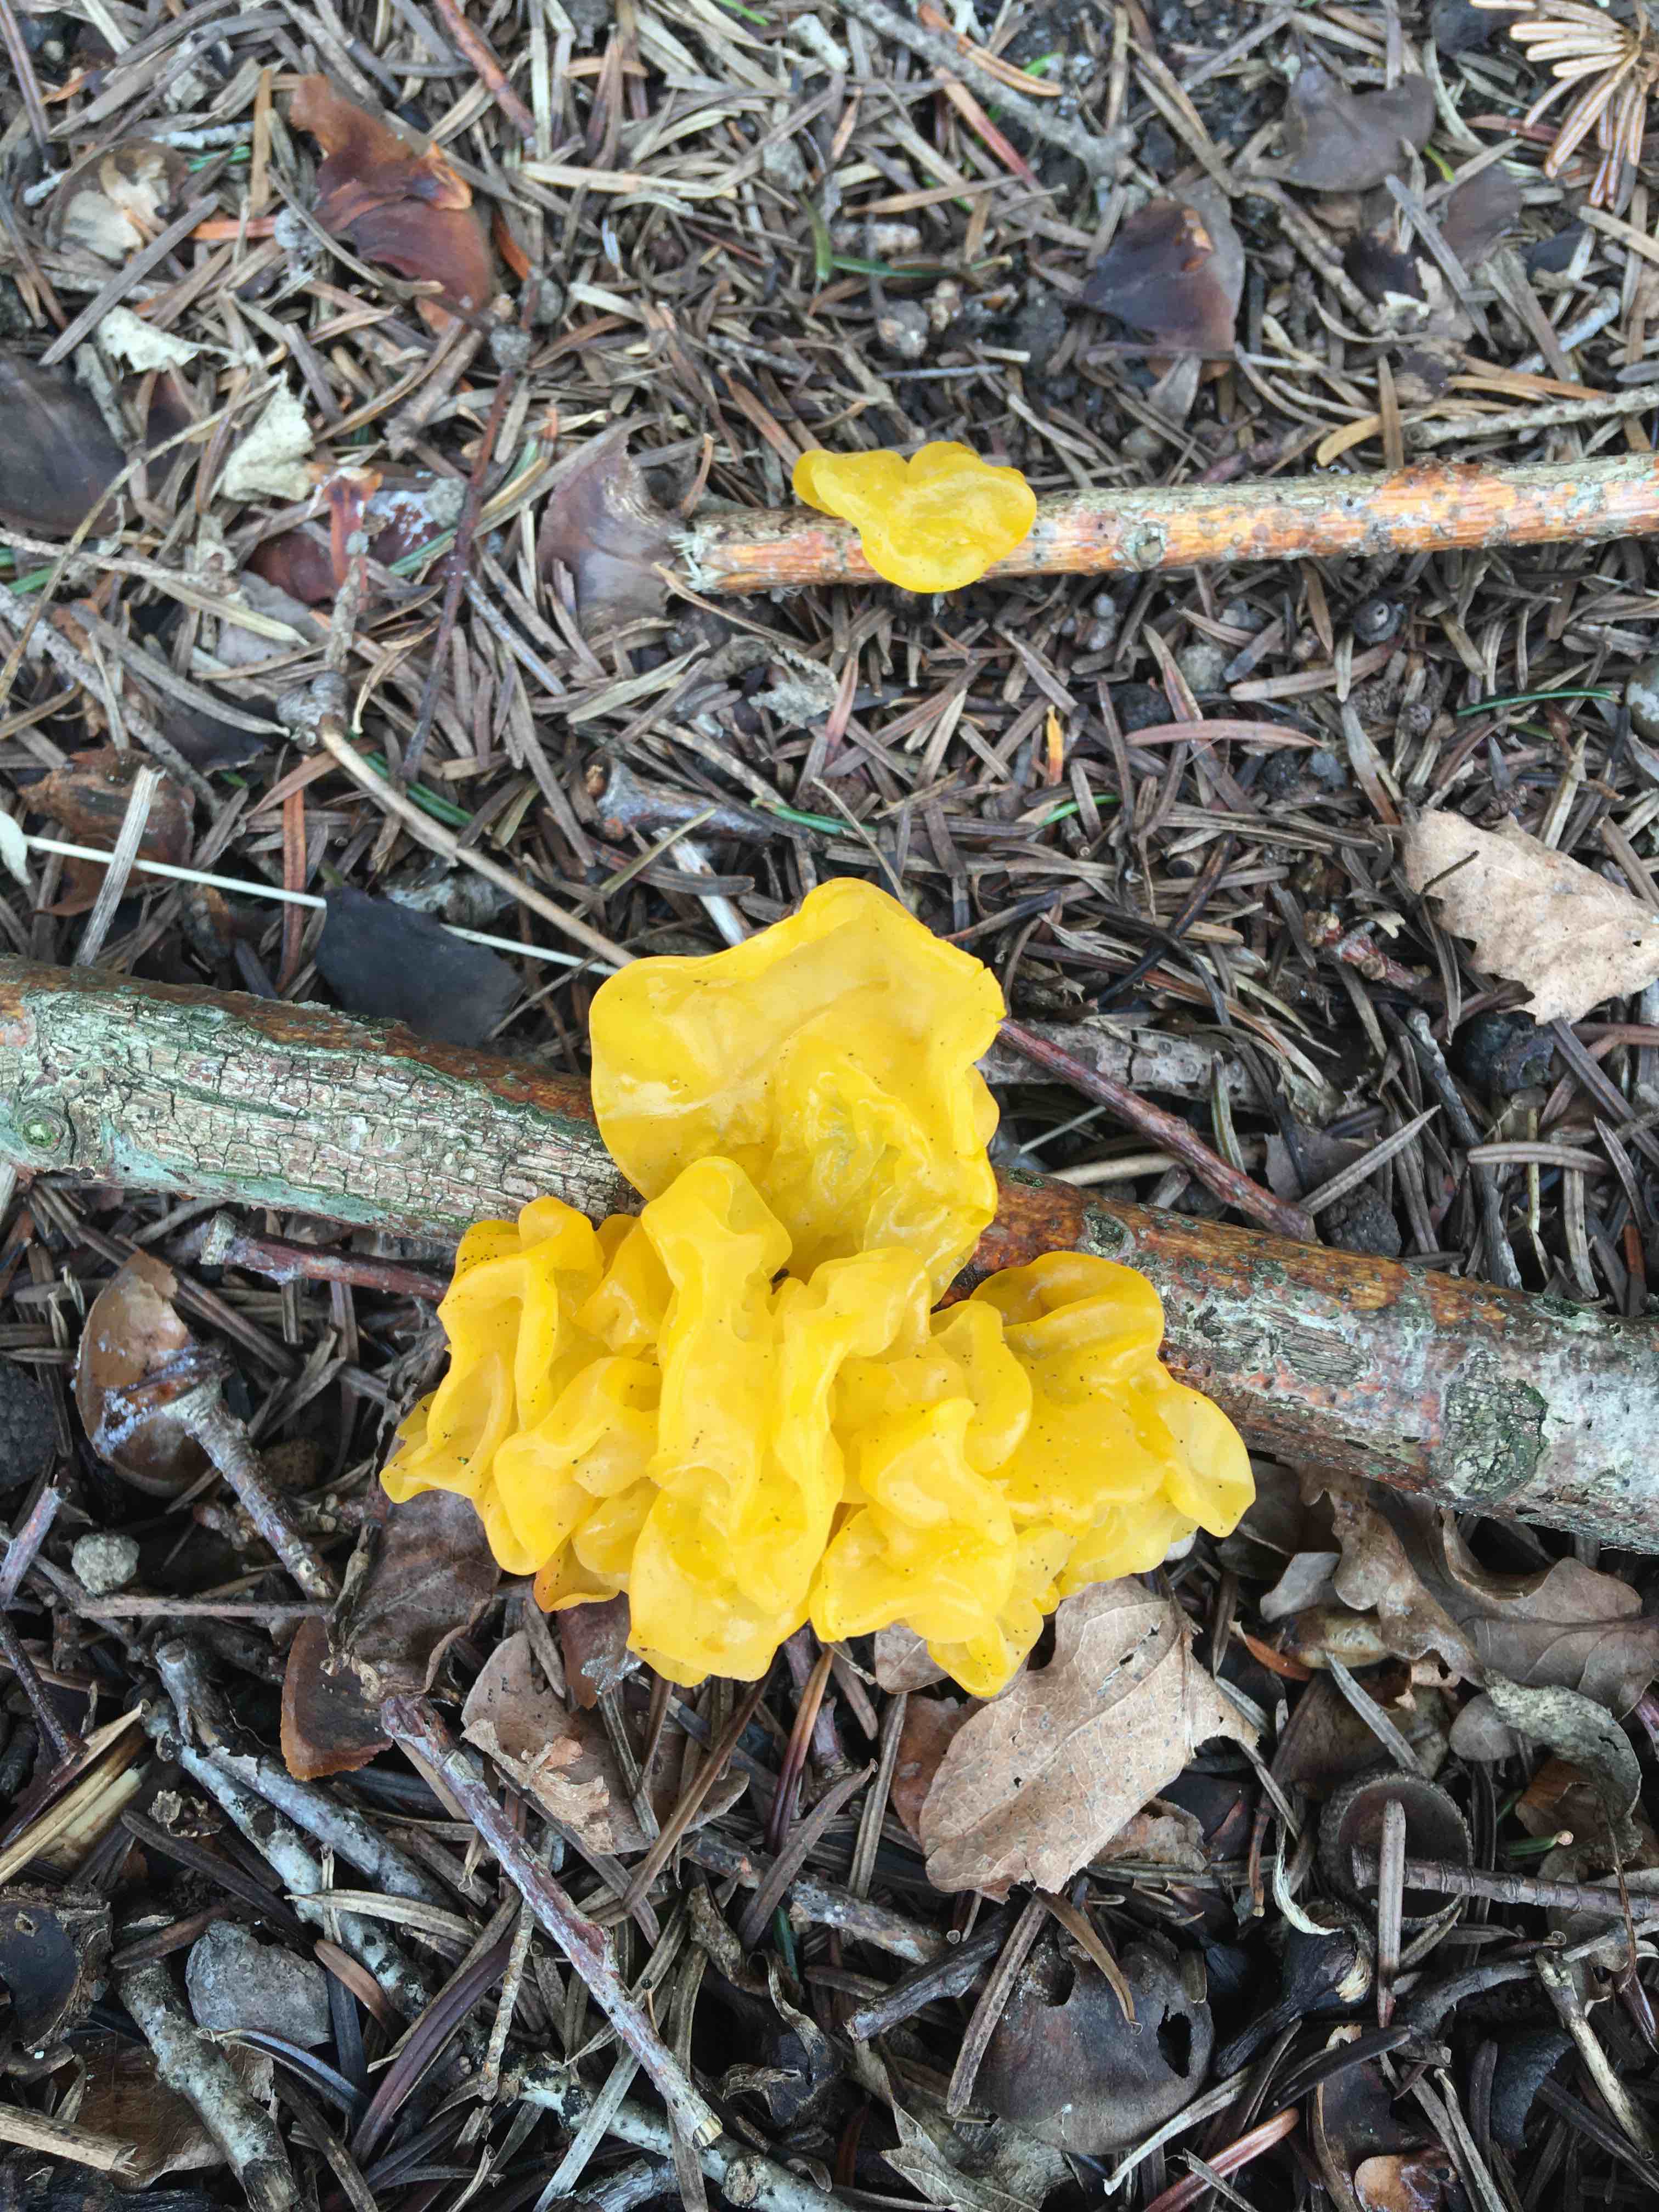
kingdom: Fungi
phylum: Basidiomycota
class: Tremellomycetes
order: Tremellales
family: Tremellaceae
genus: Tremella
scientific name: Tremella mesenterica
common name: gul bævresvamp
